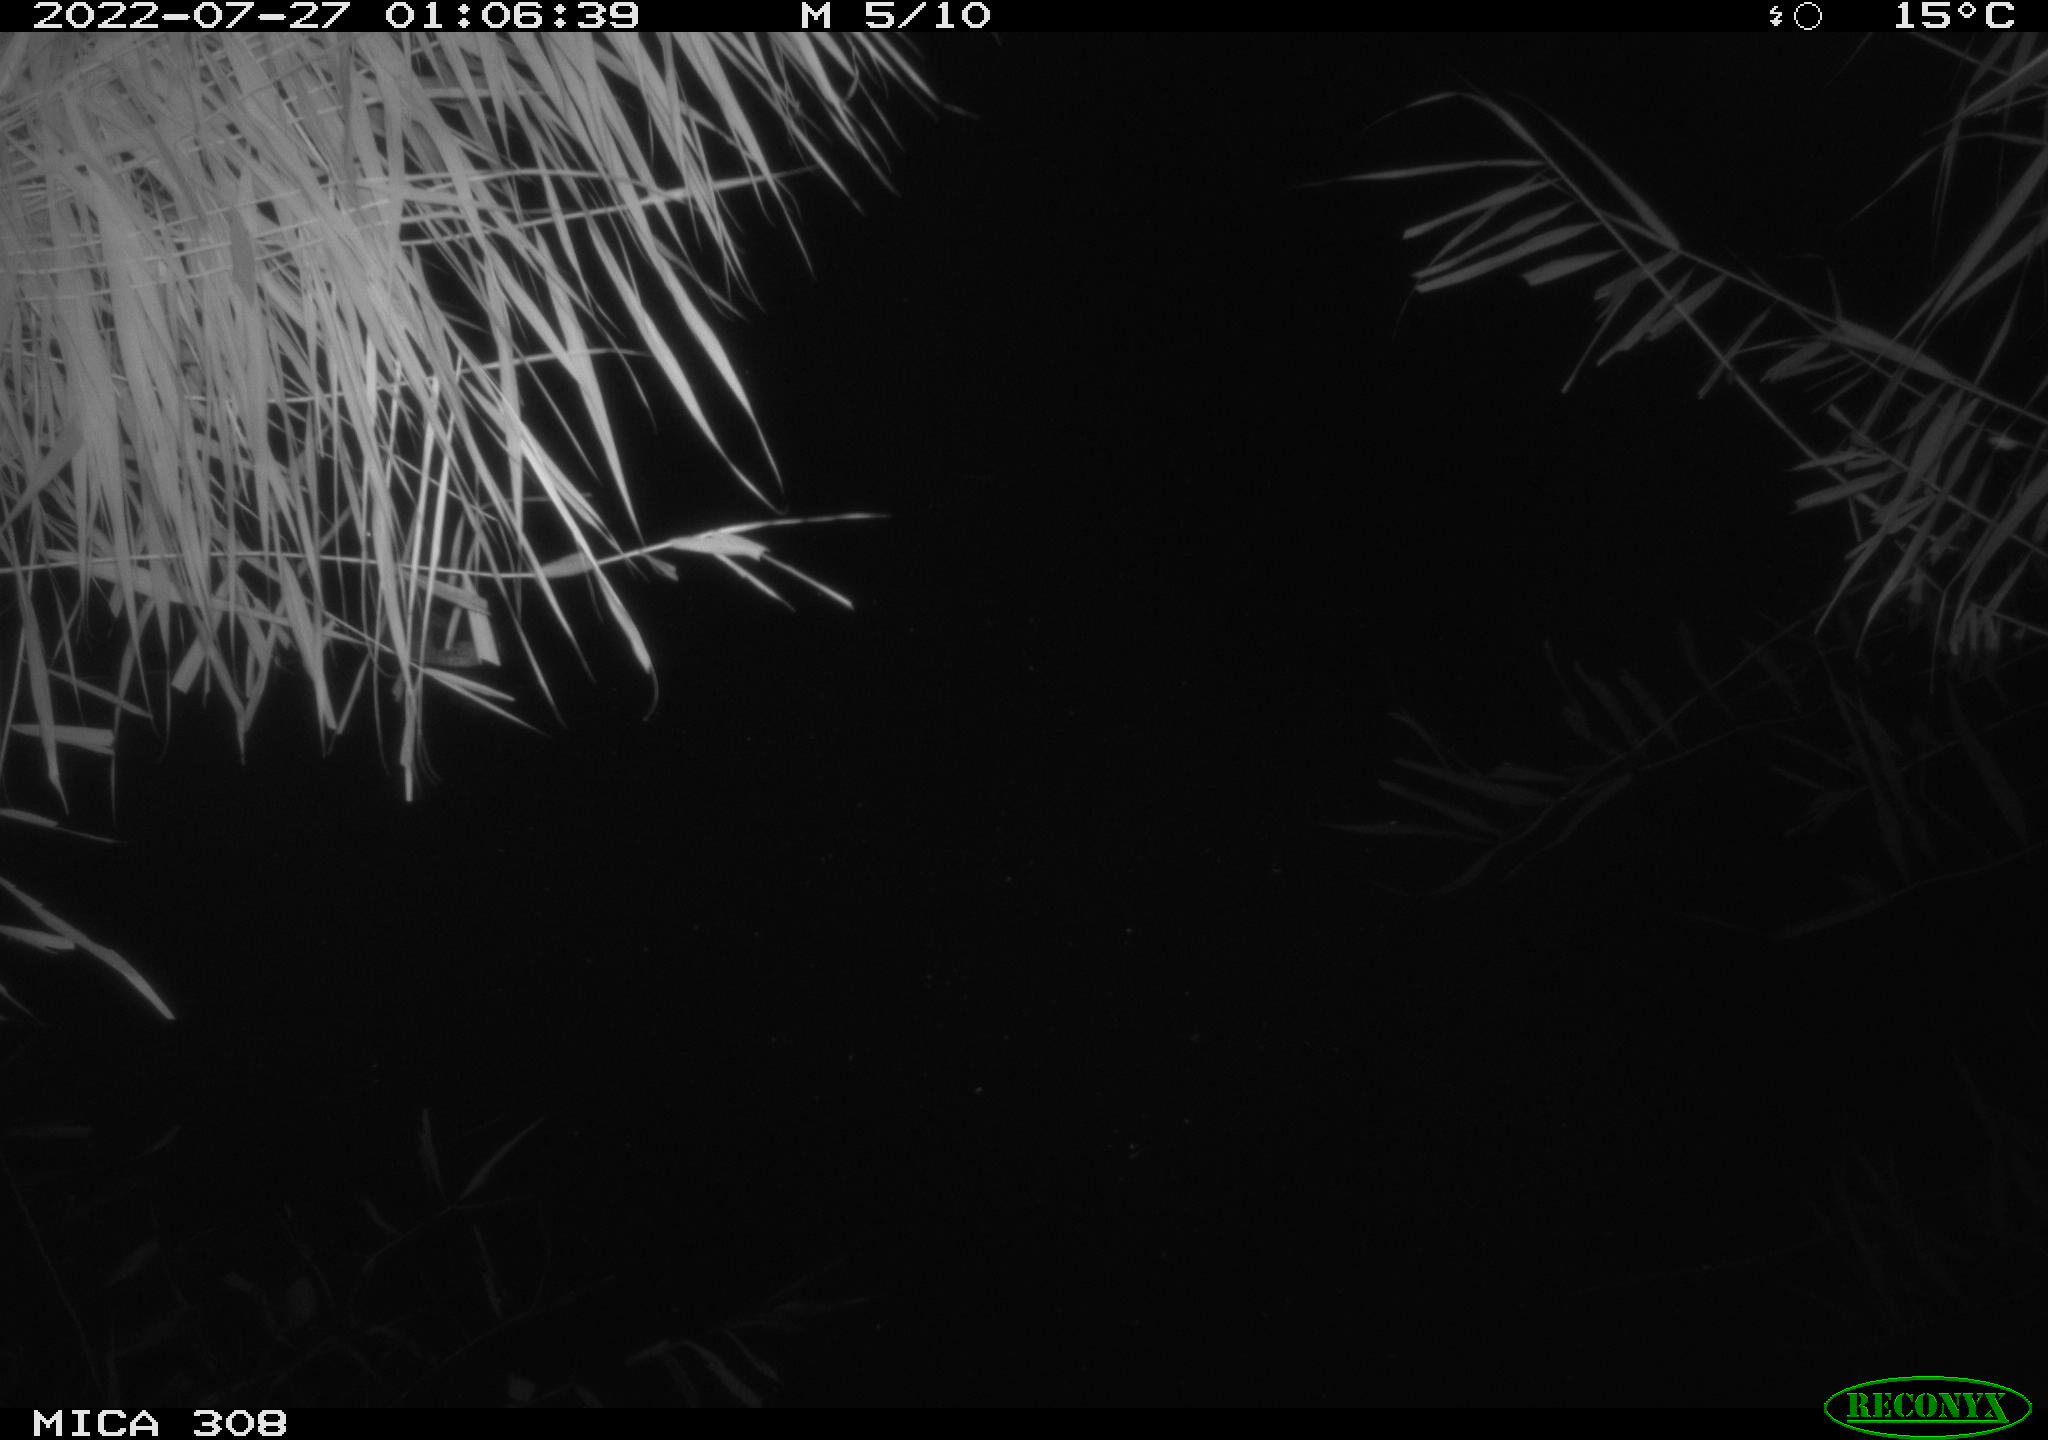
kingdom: Animalia
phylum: Chordata
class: Aves
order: Anseriformes
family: Anatidae
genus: Anas
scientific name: Anas platyrhynchos
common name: Mallard
